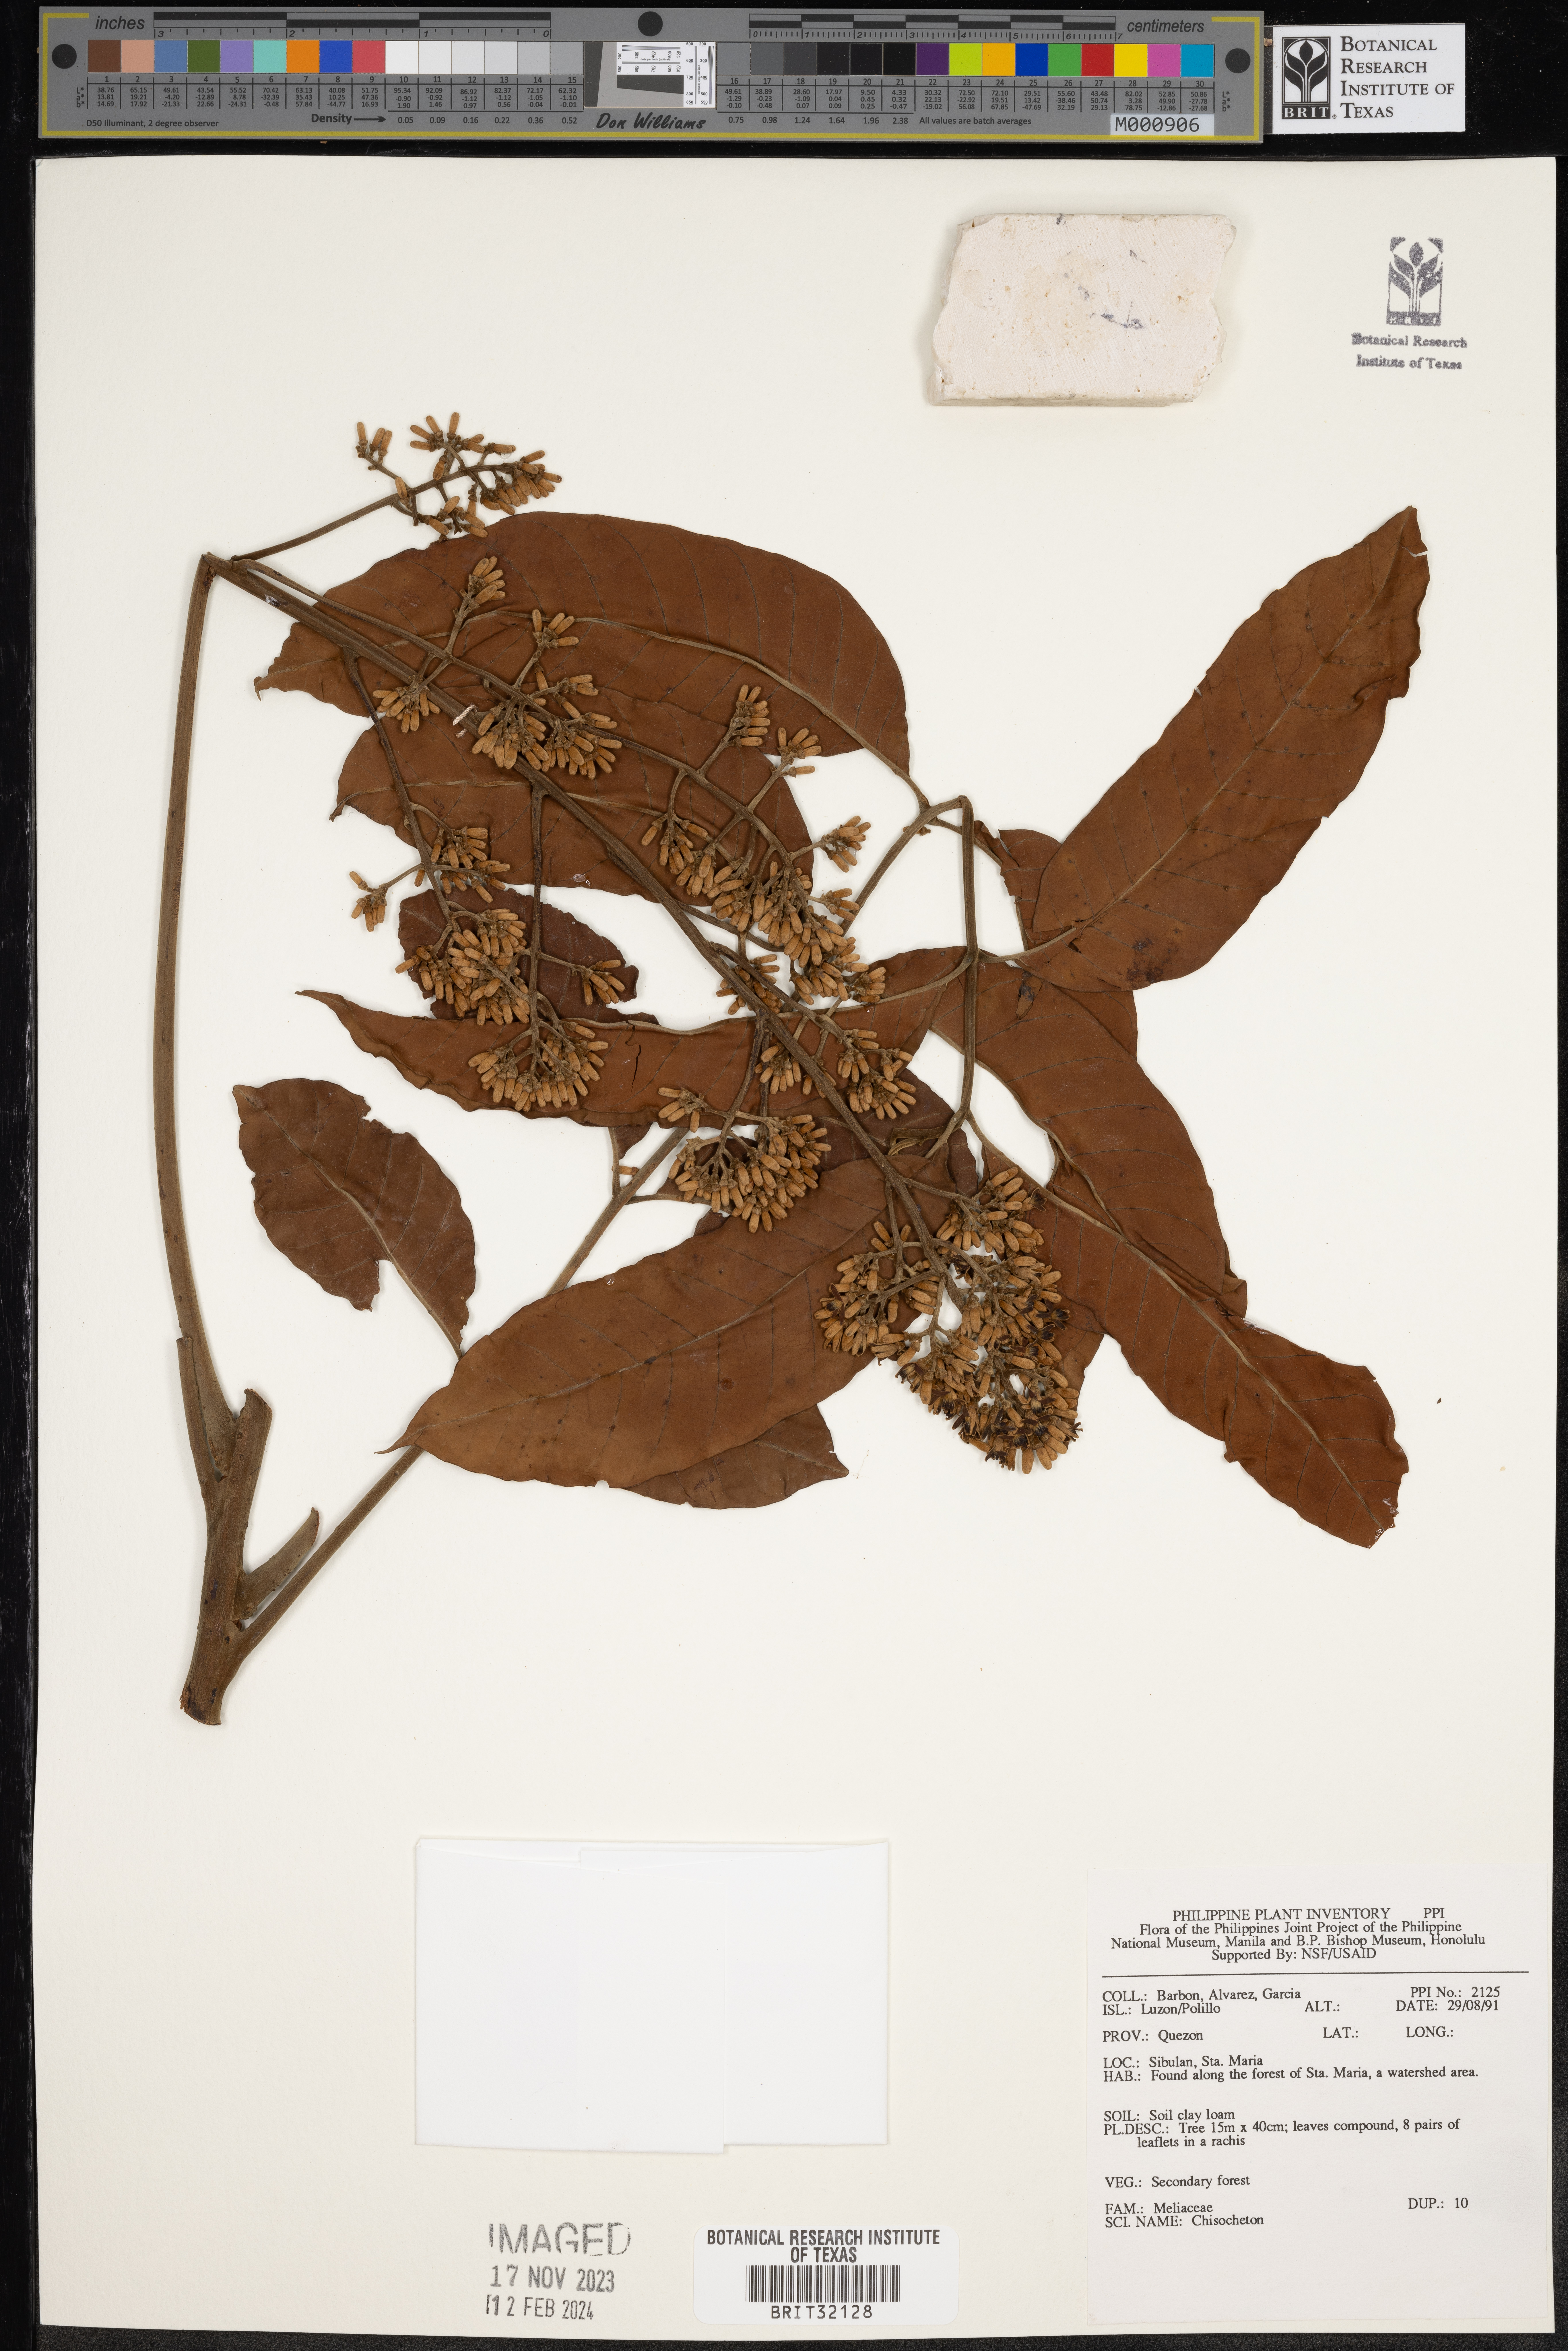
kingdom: Plantae
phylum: Tracheophyta
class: Magnoliopsida
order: Sapindales
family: Meliaceae
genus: Chisocheton
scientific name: Chisocheton
